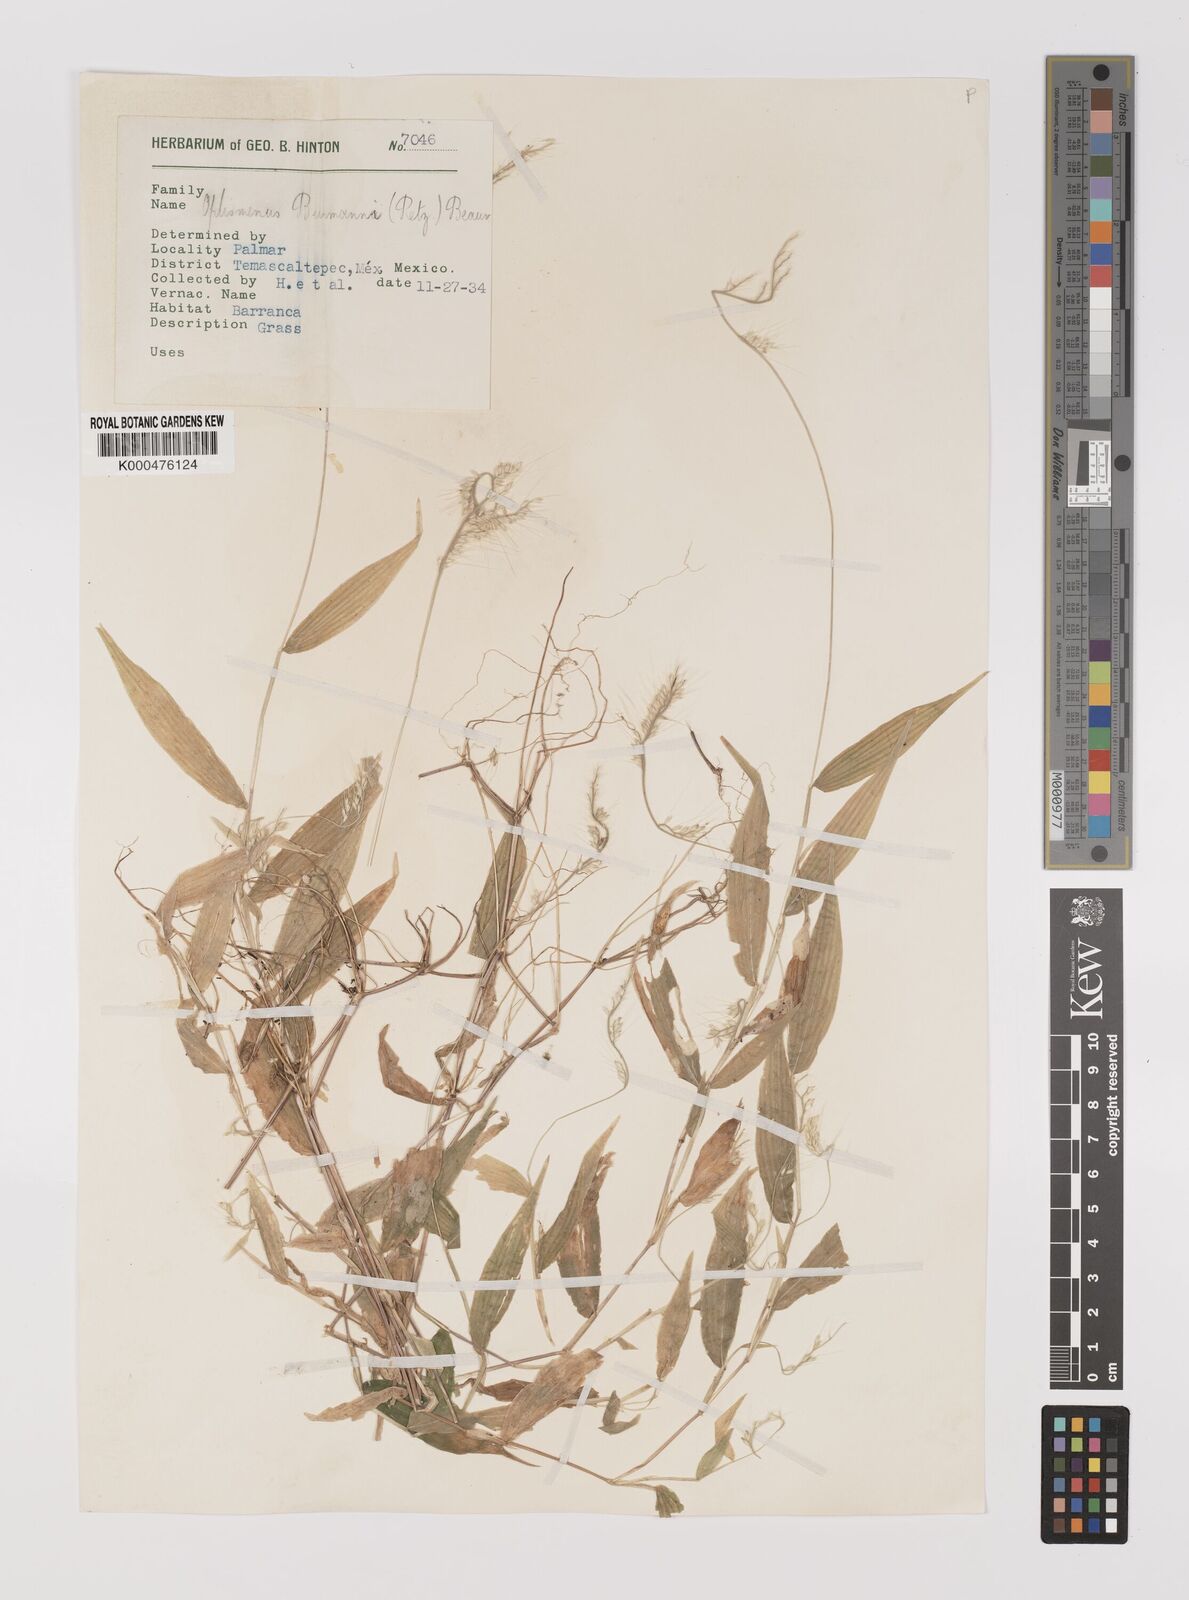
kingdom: Plantae
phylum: Tracheophyta
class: Liliopsida
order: Poales
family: Poaceae
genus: Oplismenus
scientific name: Oplismenus burmanni
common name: Burmann's basketgrass
